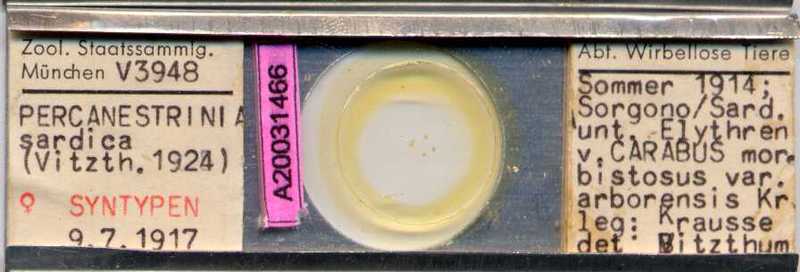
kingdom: Animalia
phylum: Arthropoda
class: Arachnida
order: Sarcoptiformes
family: Canestriniidae
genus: Canestrinia
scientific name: Canestrinia
